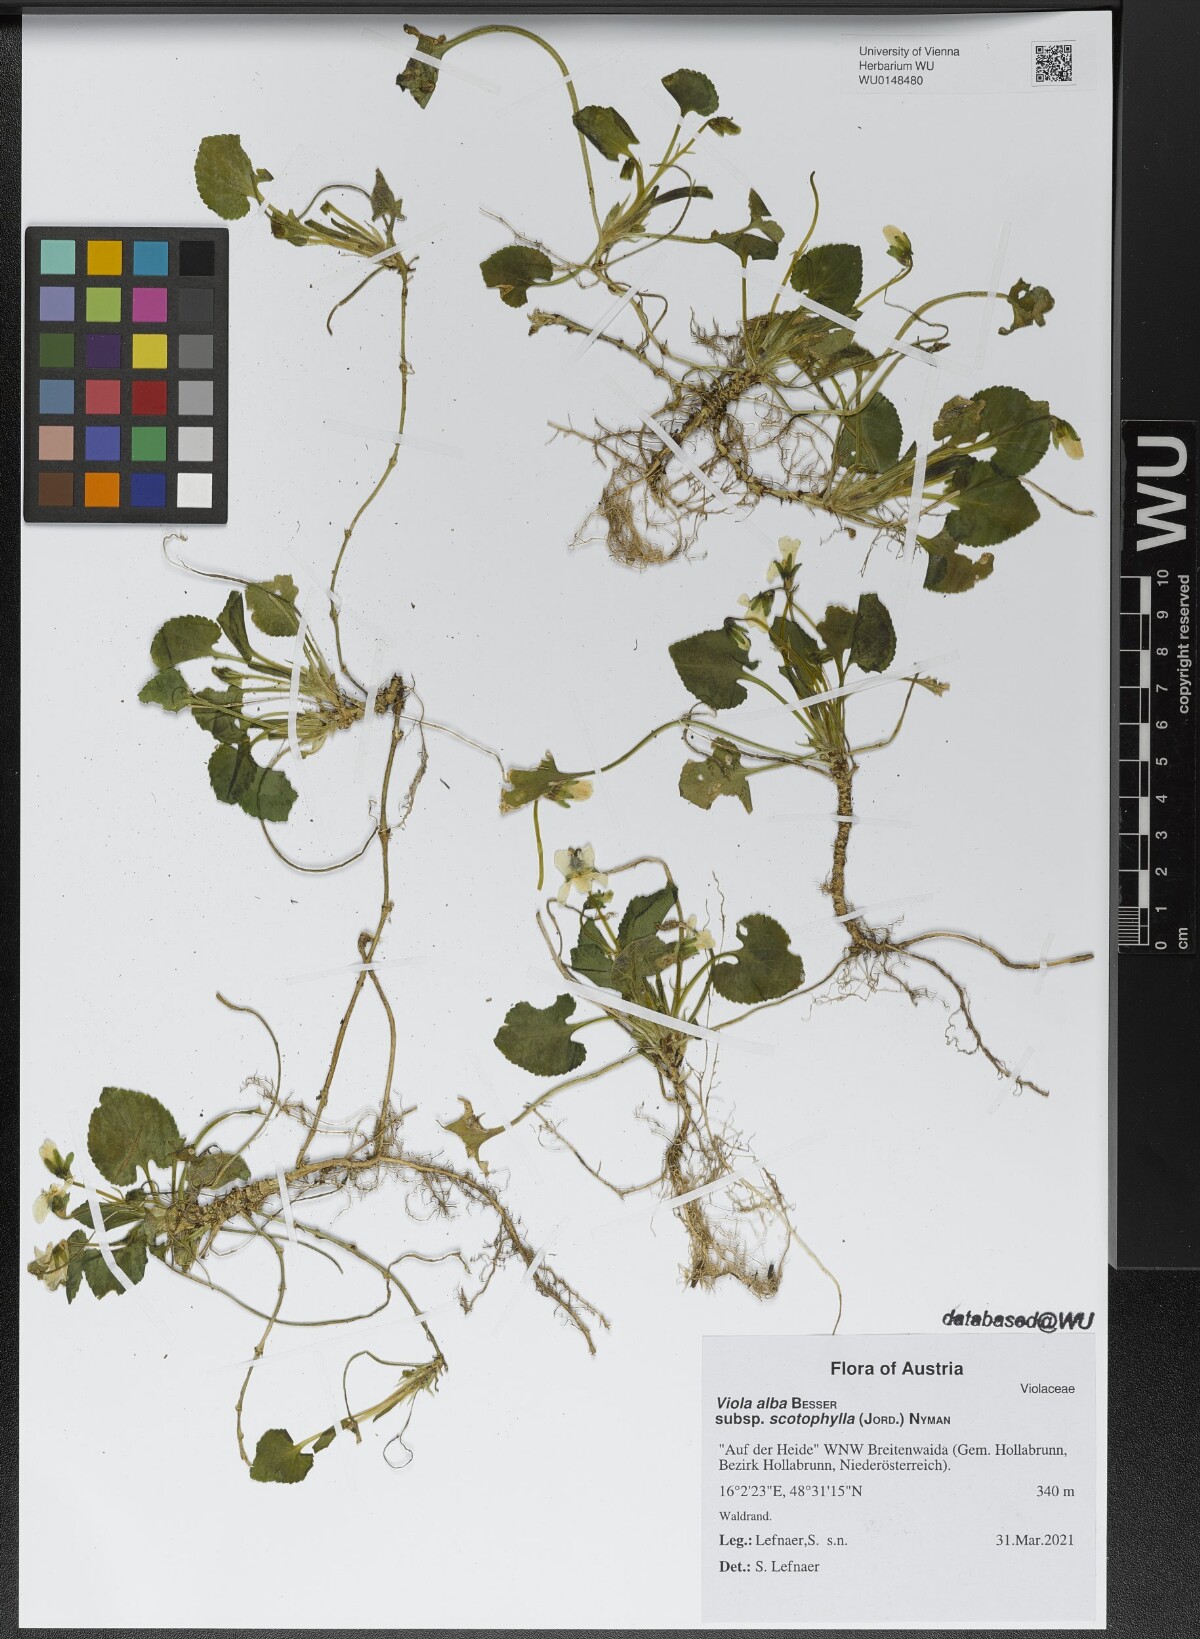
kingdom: Plantae
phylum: Tracheophyta
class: Magnoliopsida
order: Malpighiales
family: Violaceae
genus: Viola
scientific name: Viola alba
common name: White violet
